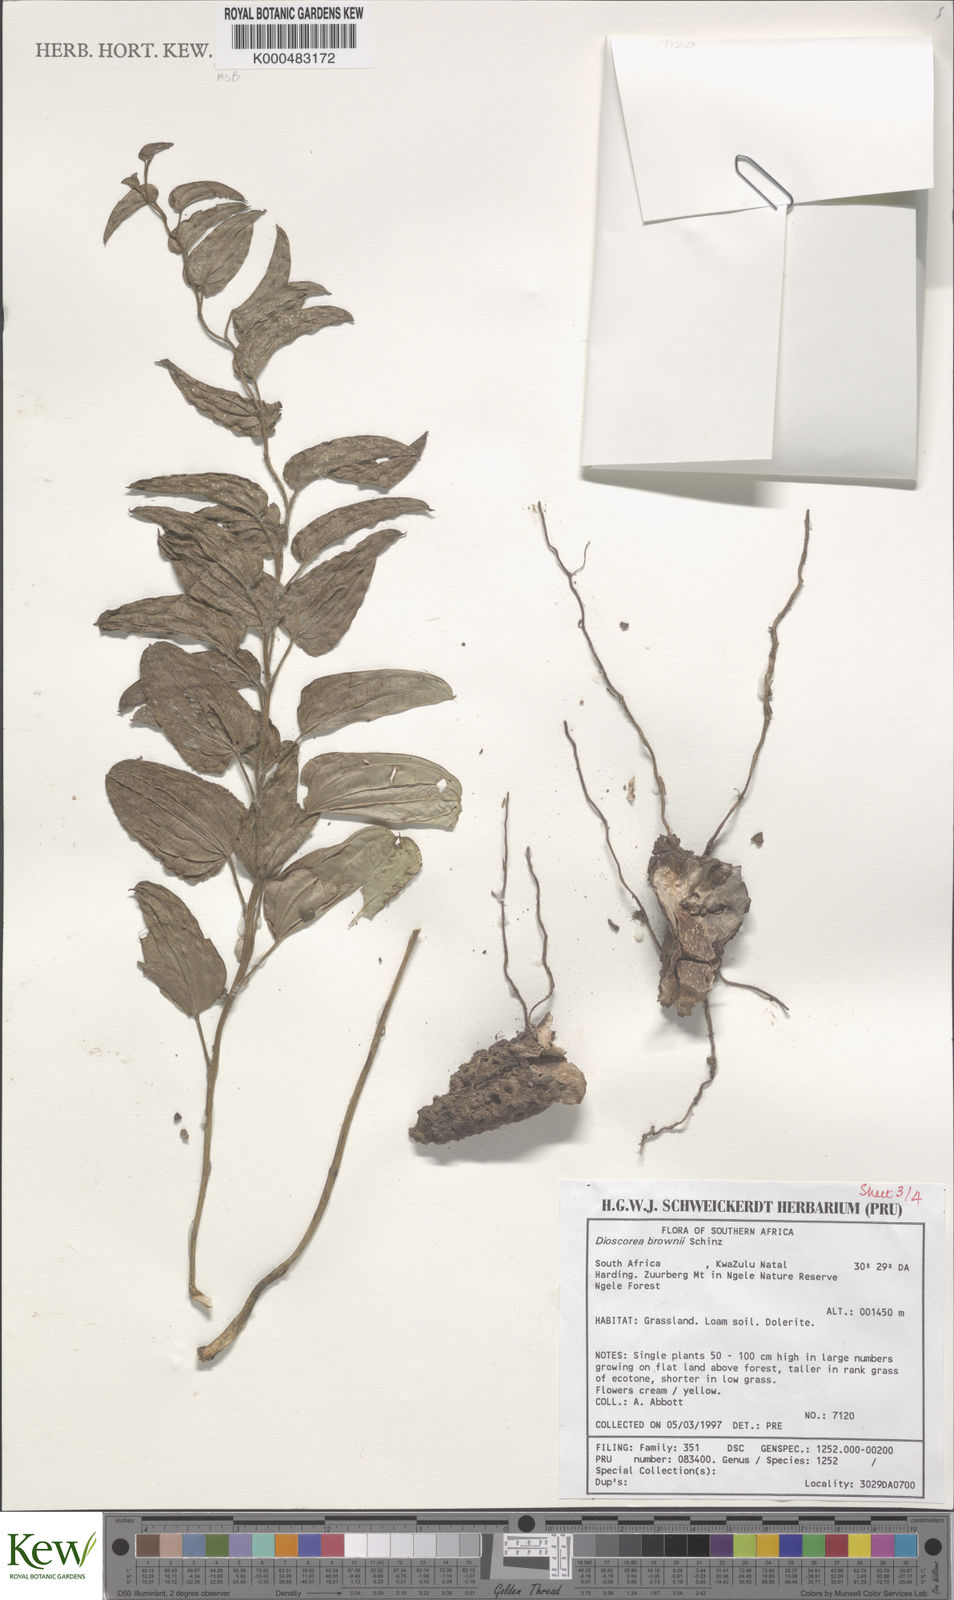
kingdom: Plantae
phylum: Tracheophyta
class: Liliopsida
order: Dioscoreales
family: Dioscoreaceae
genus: Dioscorea
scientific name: Dioscorea brownii
